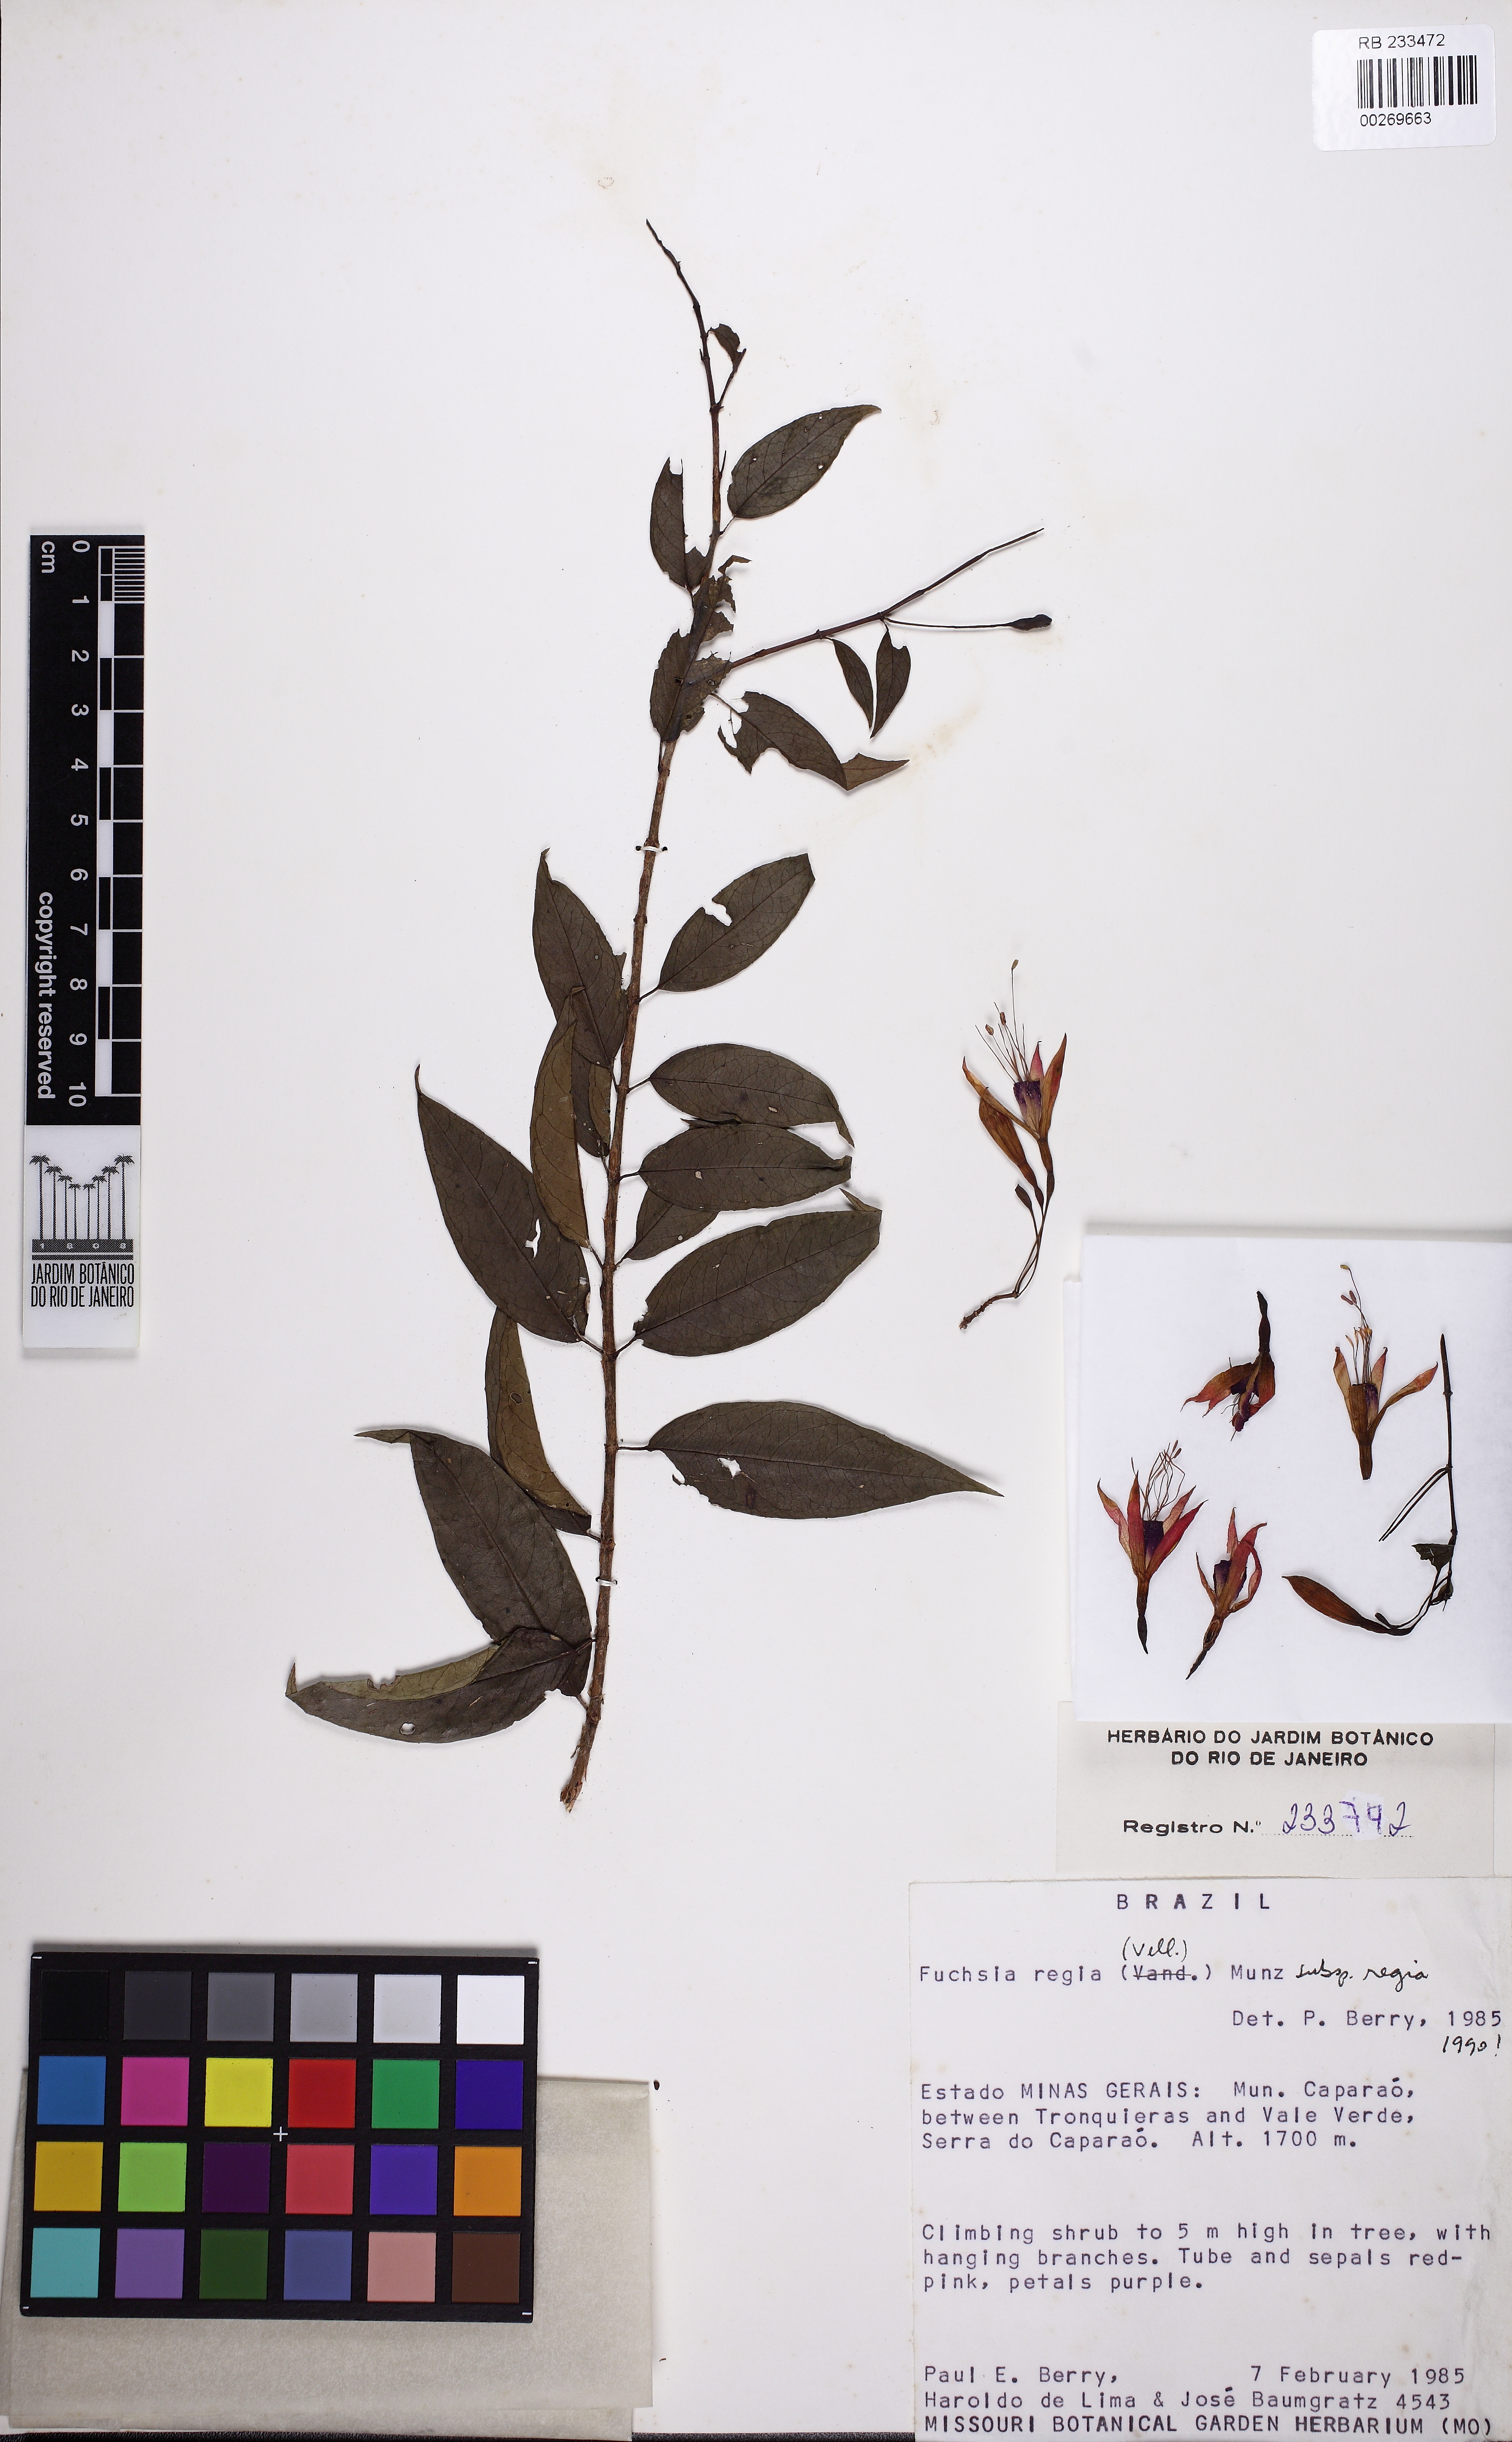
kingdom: Plantae
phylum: Tracheophyta
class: Magnoliopsida
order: Myrtales
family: Onagraceae
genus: Fuchsia
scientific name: Fuchsia regia
